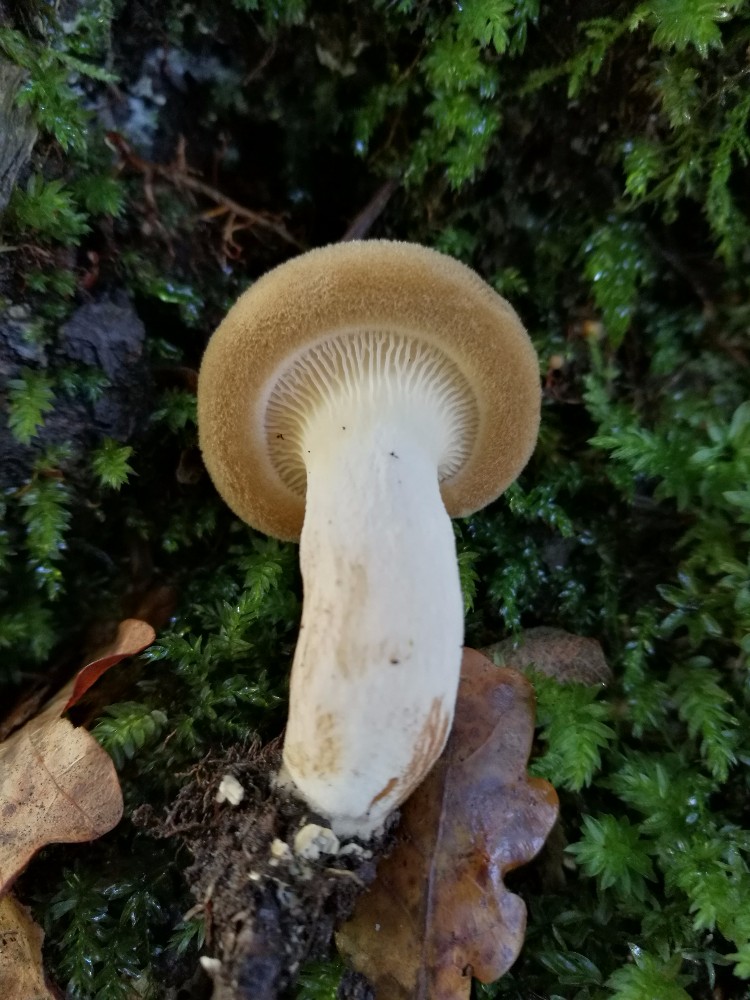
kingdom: Fungi
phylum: Basidiomycota
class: Agaricomycetes
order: Boletales
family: Paxillaceae
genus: Paxillus
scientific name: Paxillus involutus
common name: almindelig netbladhat
